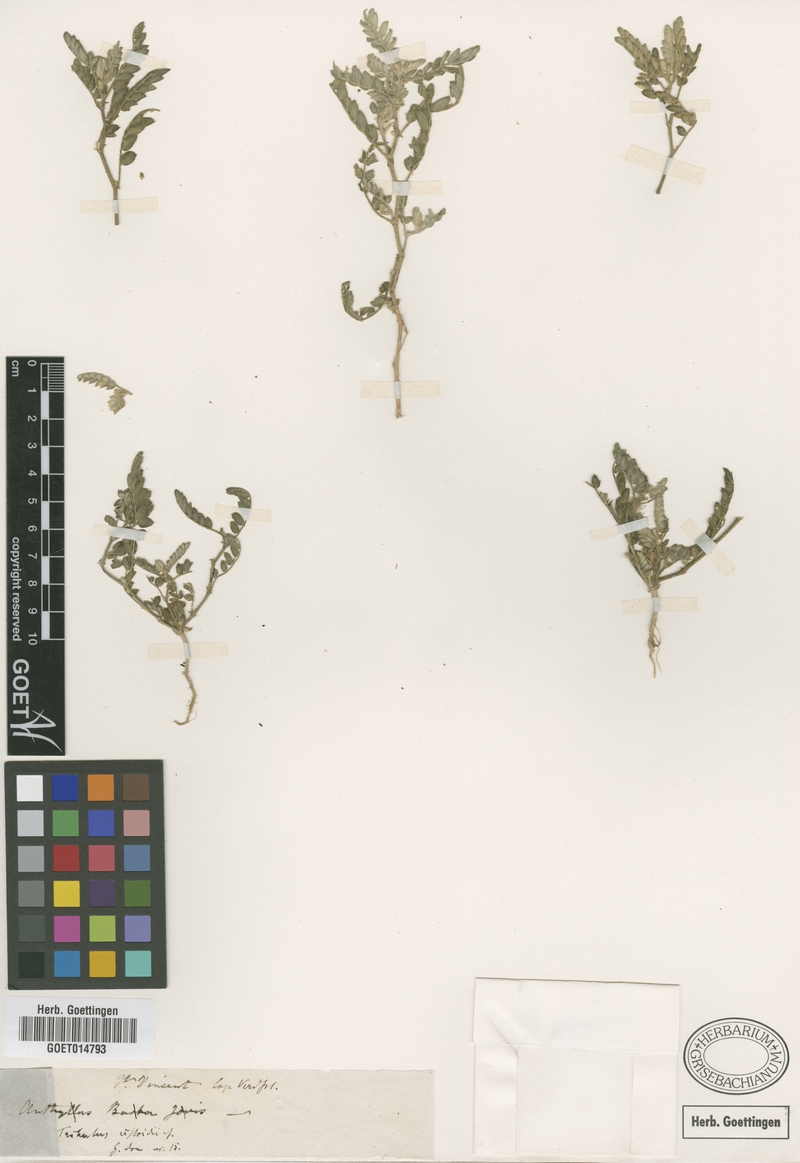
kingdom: Plantae
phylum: Tracheophyta
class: Magnoliopsida
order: Zygophyllales
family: Zygophyllaceae
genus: Tribulus
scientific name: Tribulus cistoides
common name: Jamaican feverplant
